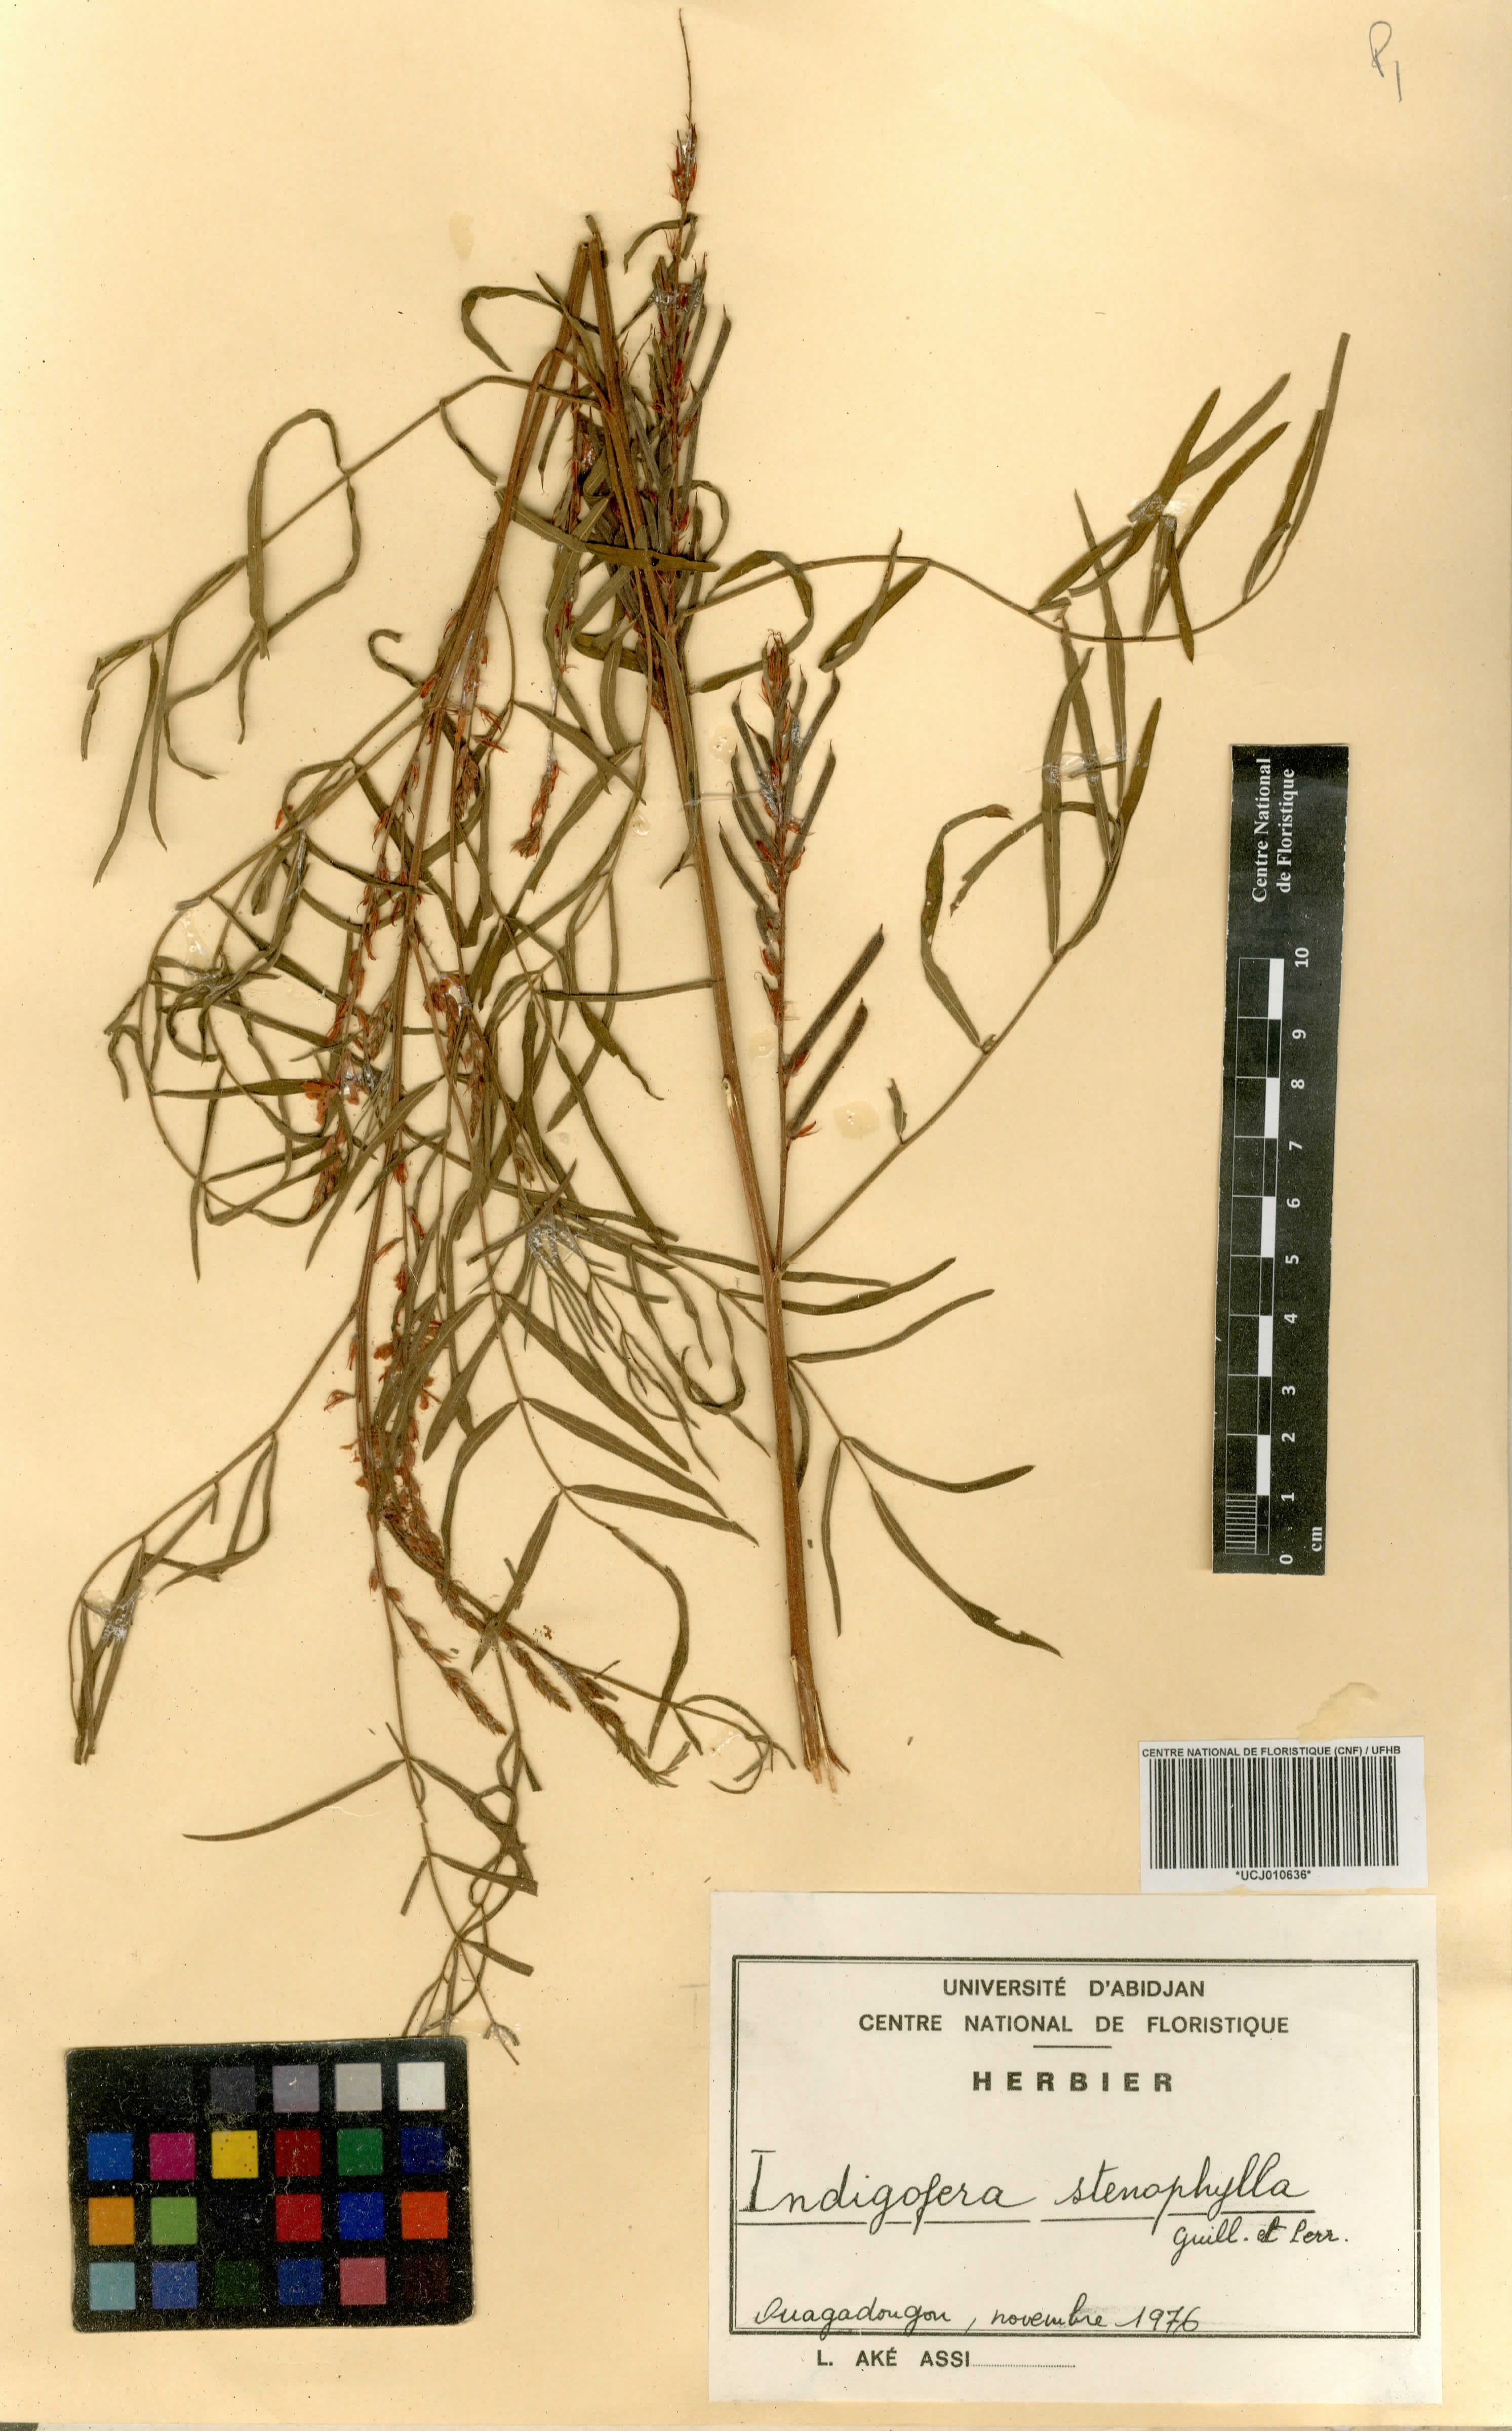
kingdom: Plantae
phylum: Tracheophyta
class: Magnoliopsida
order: Fabales
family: Fabaceae
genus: Indigofera
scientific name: Indigofera suffruticosa
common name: Anil de pasto
